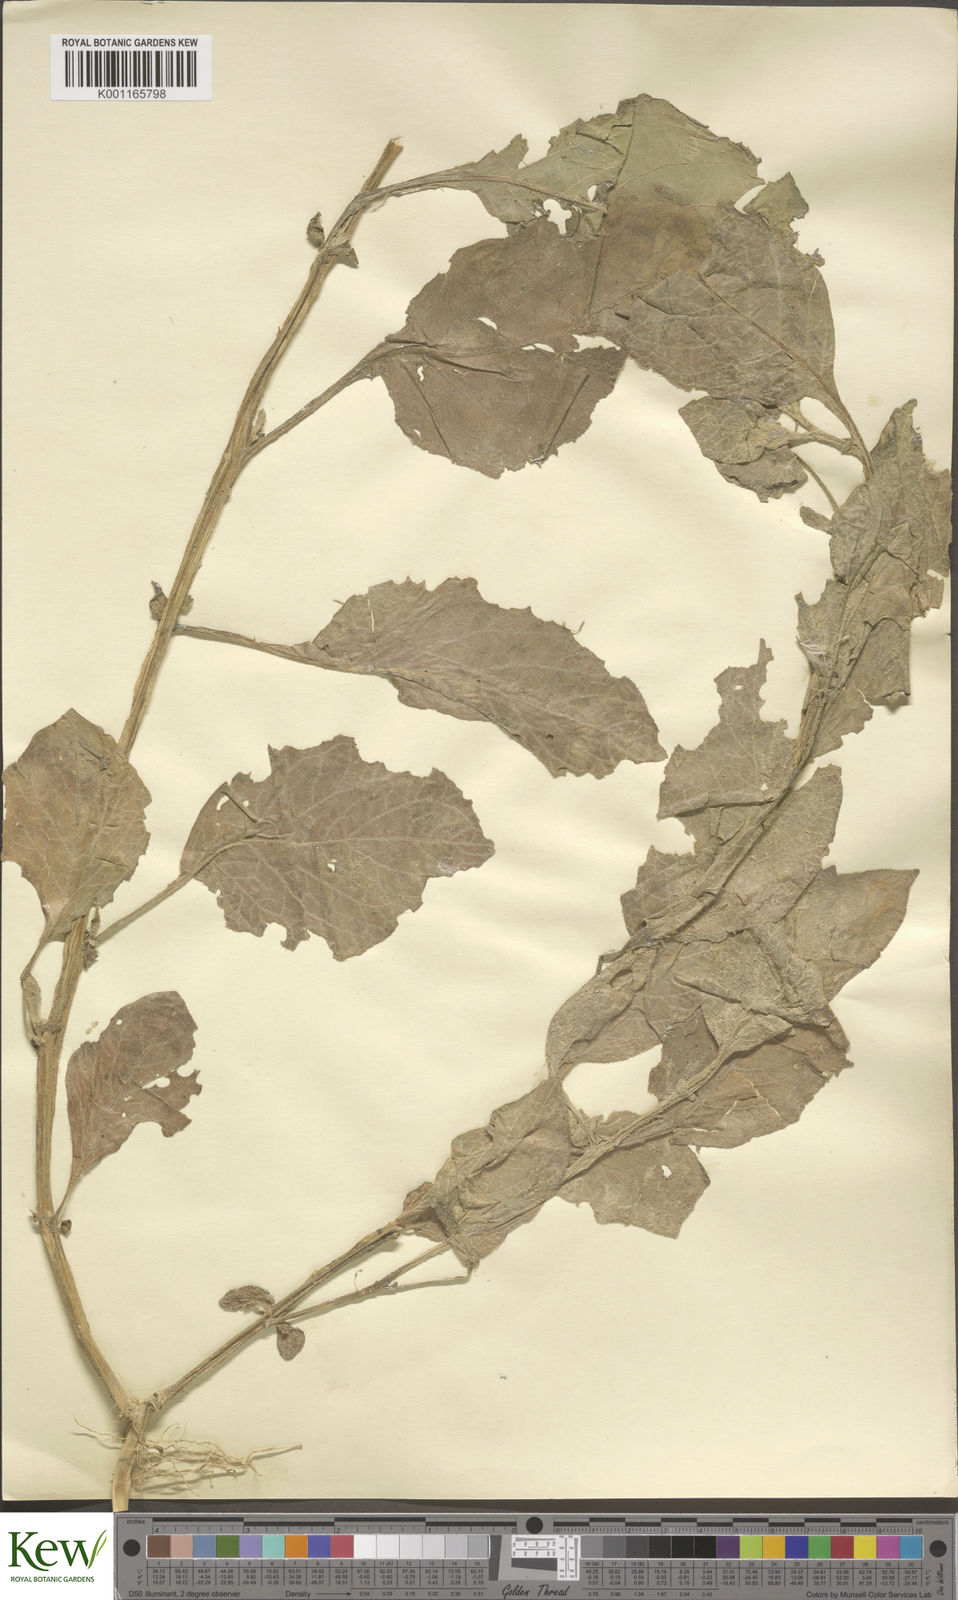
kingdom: Plantae
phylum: Tracheophyta
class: Magnoliopsida
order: Solanales
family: Solanaceae
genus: Solanum
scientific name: Solanum microdontum
